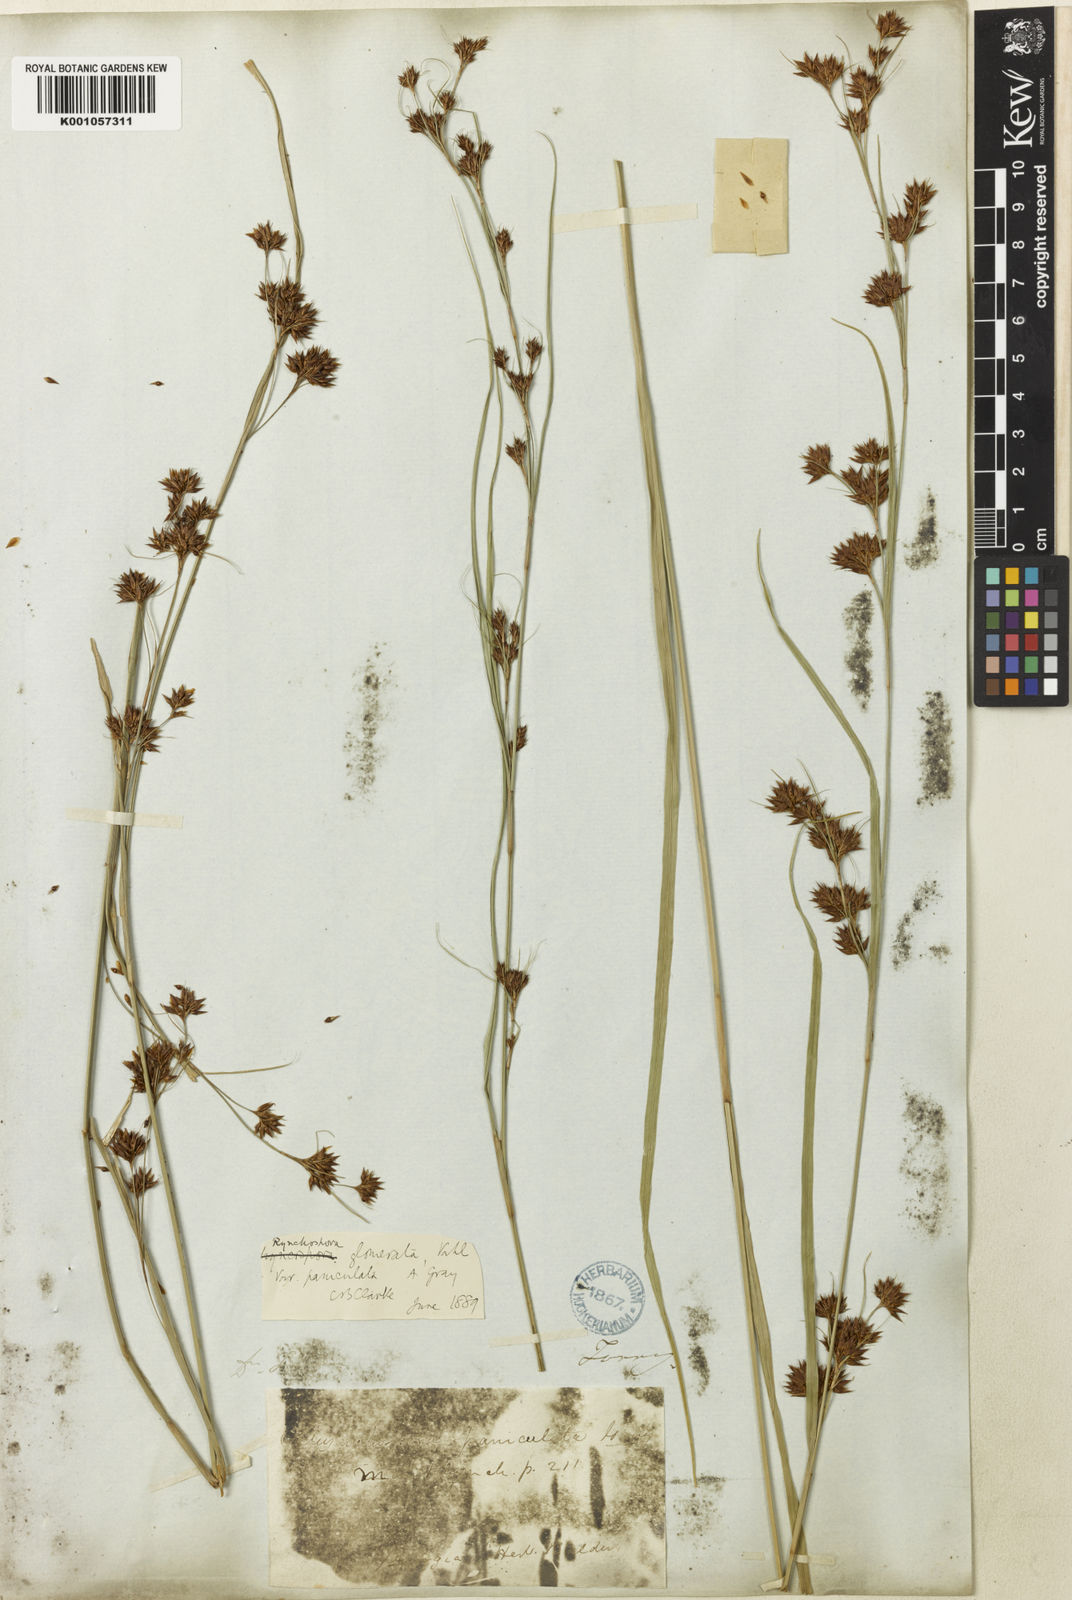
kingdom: Plantae
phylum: Tracheophyta
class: Liliopsida
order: Poales
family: Cyperaceae
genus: Rhynchospora
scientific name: Rhynchospora glomerata
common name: Cluster beak sedge
